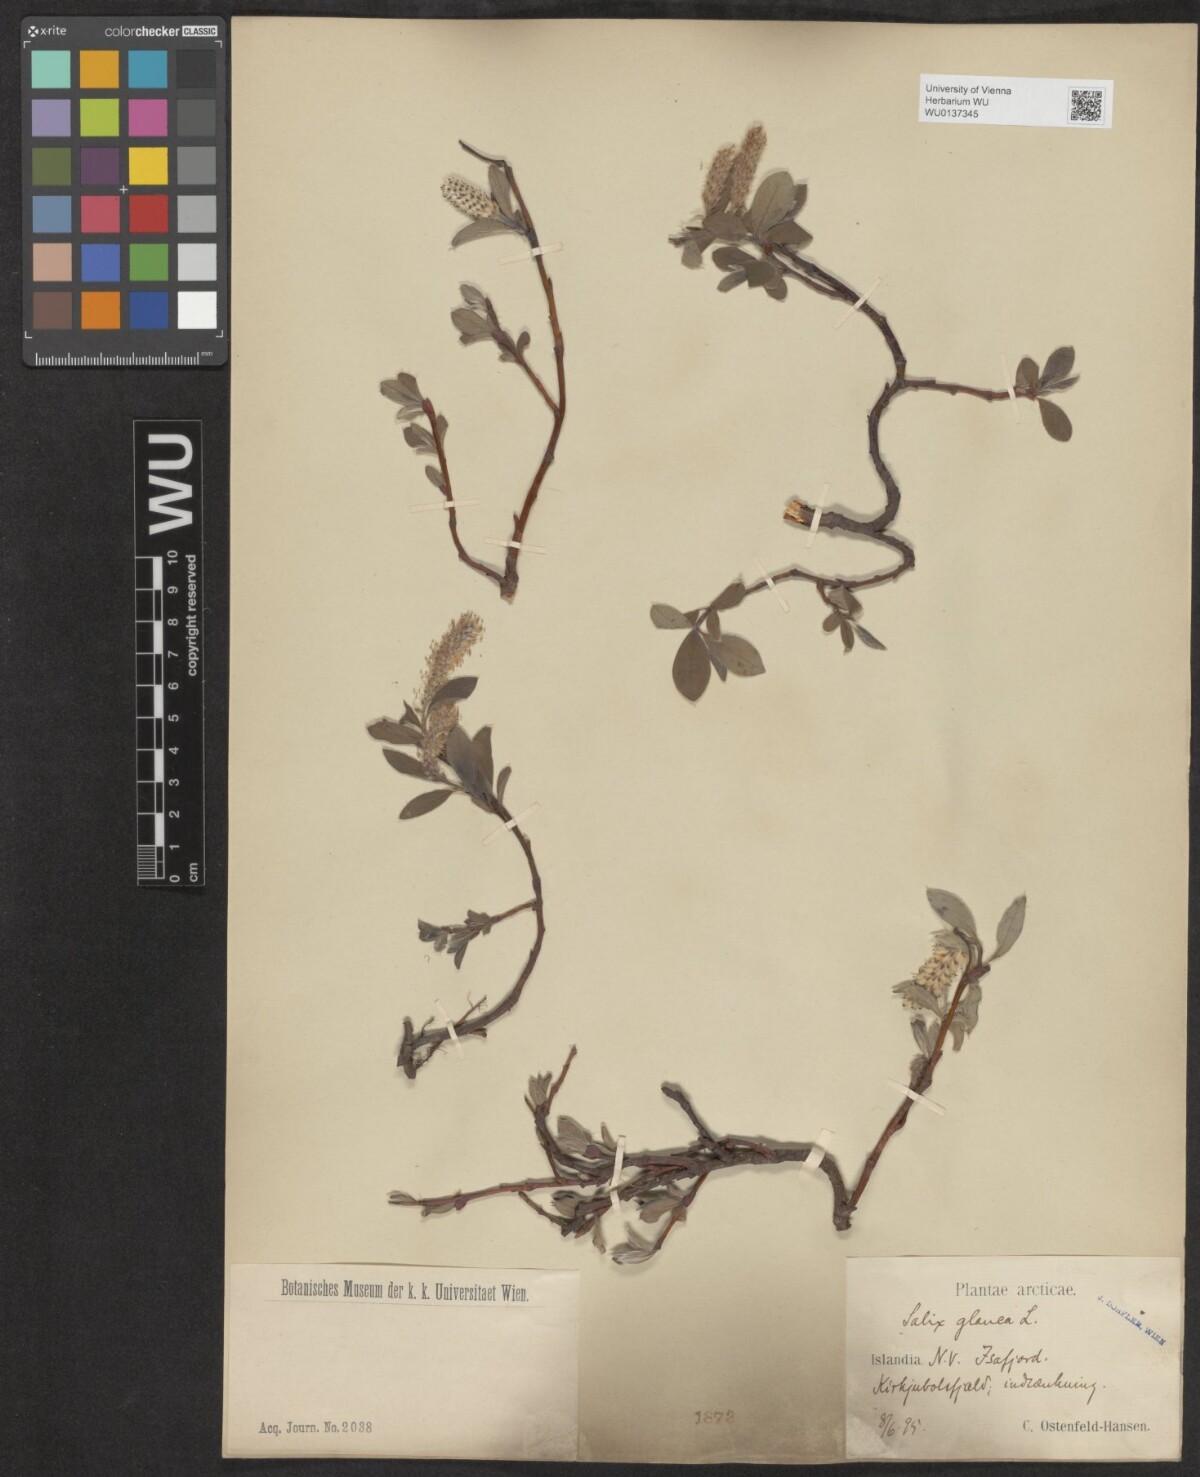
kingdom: Plantae
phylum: Tracheophyta
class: Magnoliopsida
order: Malpighiales
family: Salicaceae
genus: Salix
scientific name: Salix glauca
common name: Glaucous willow
